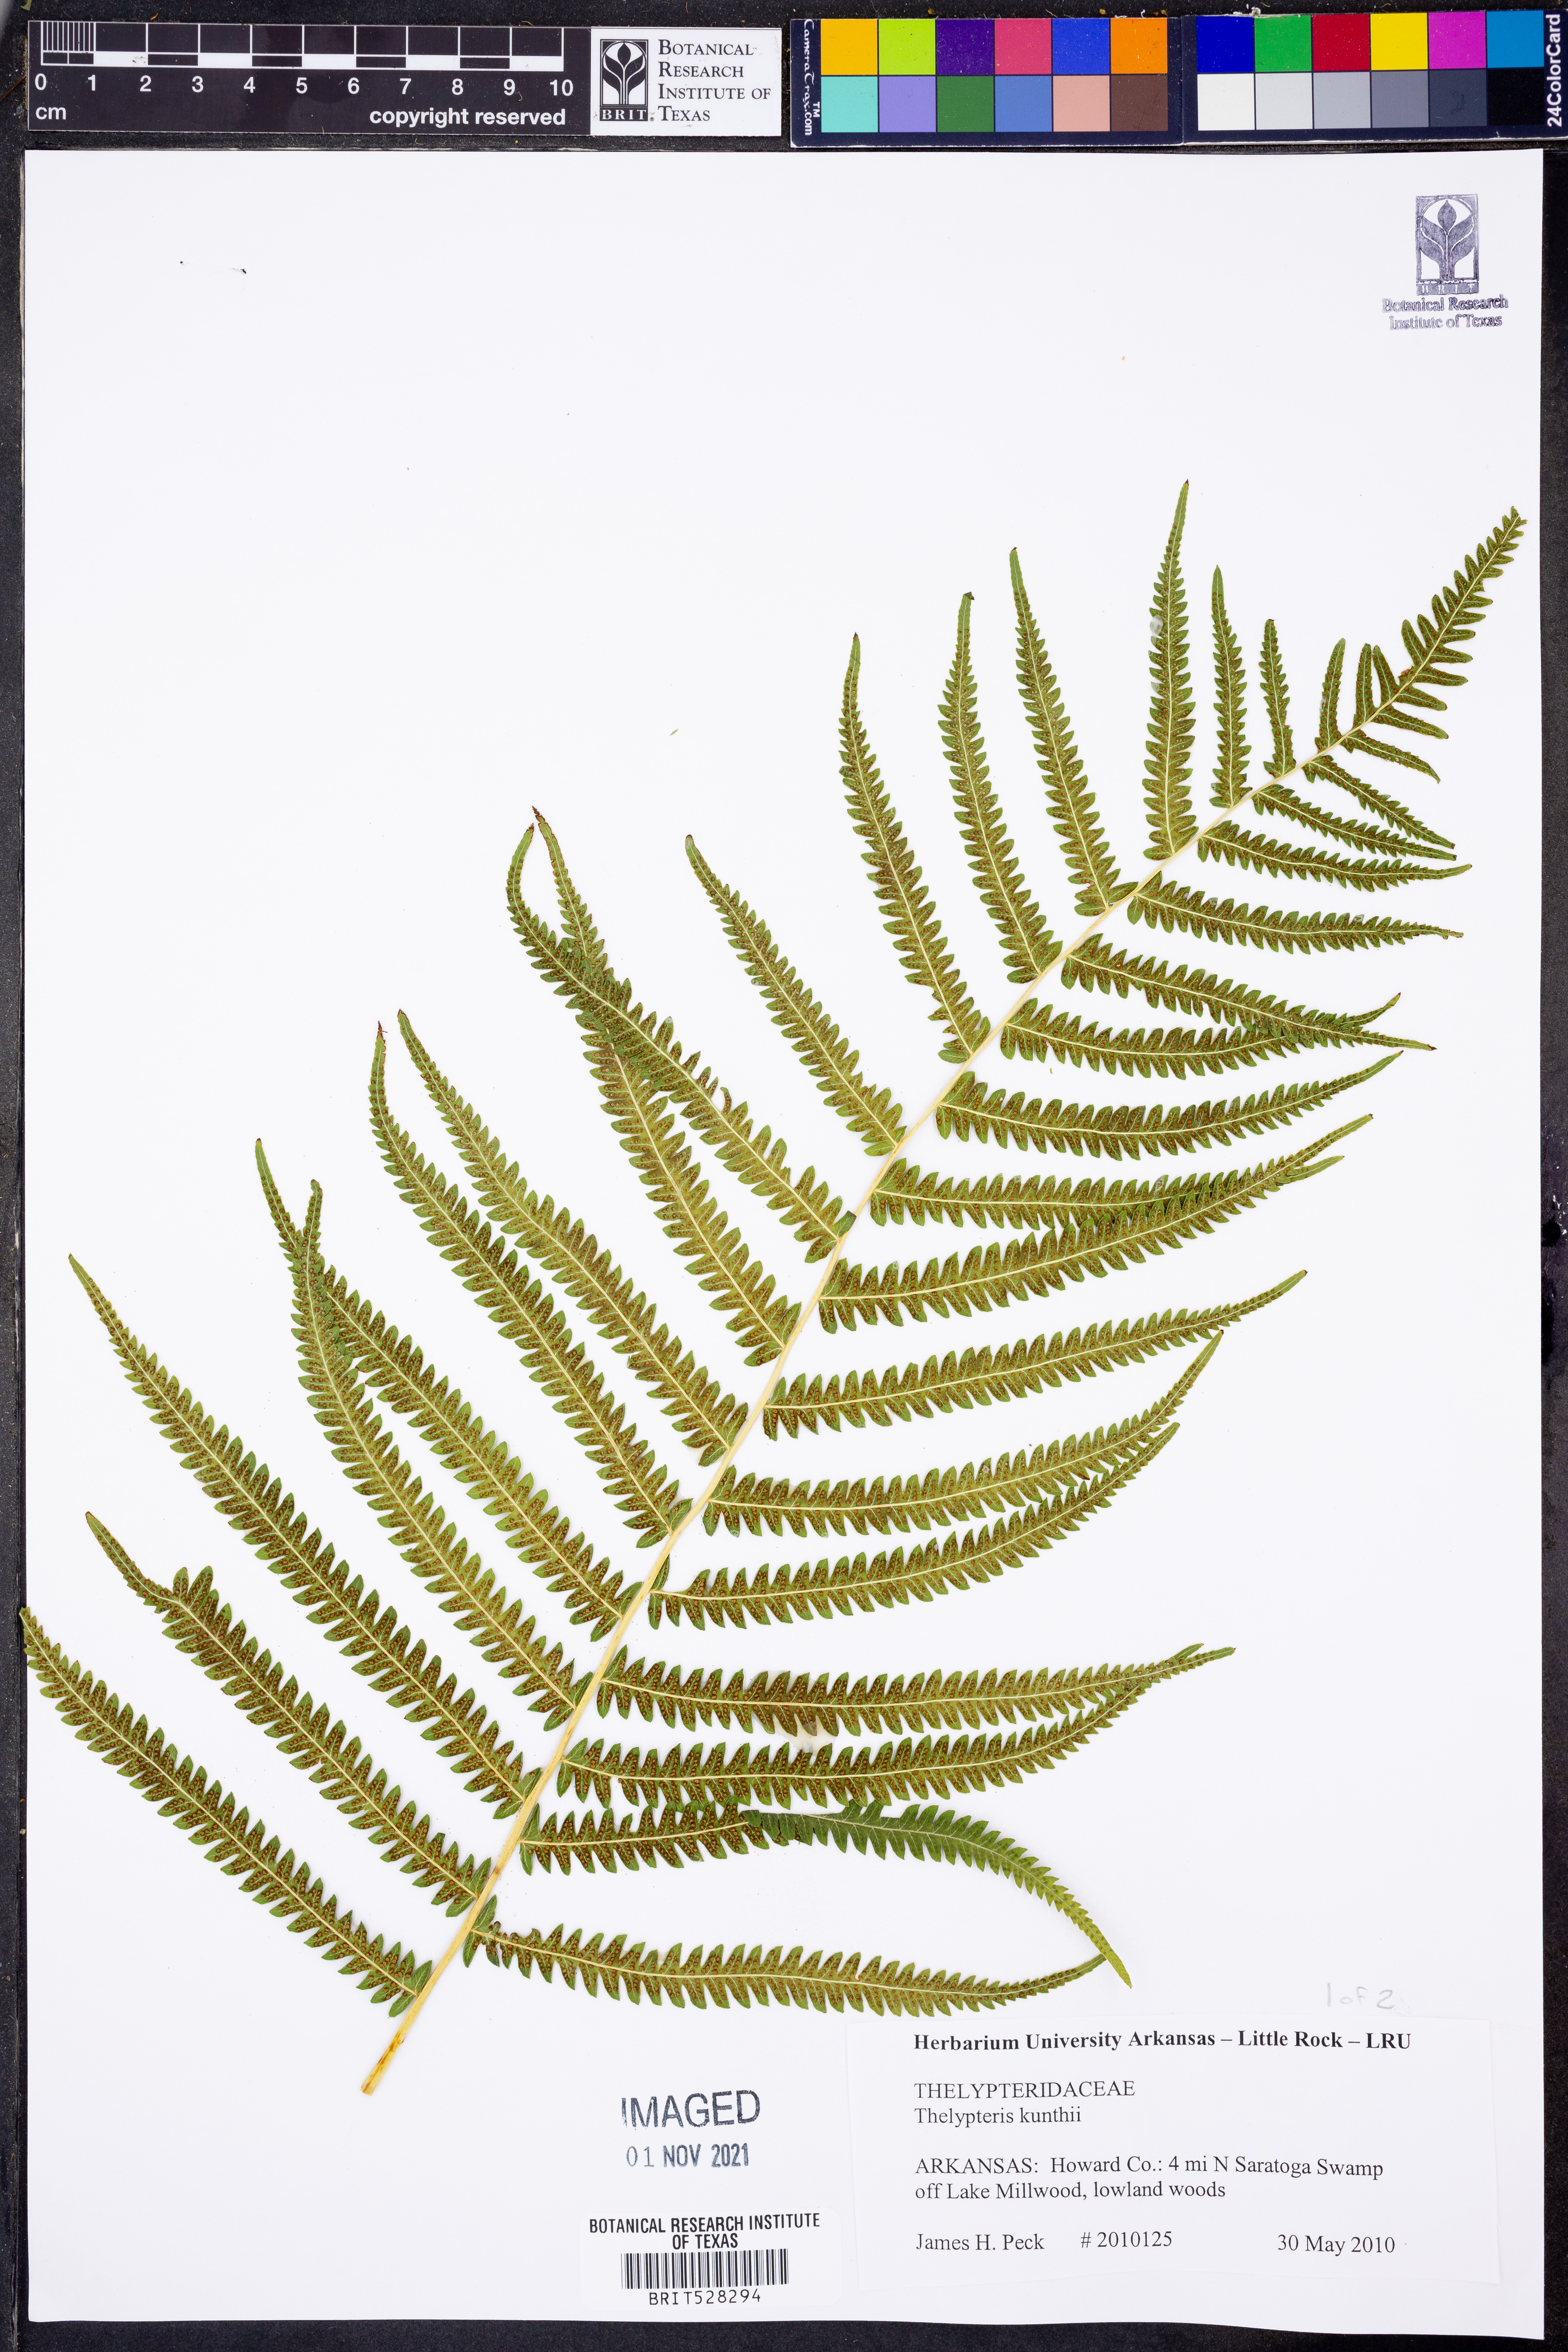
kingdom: Plantae
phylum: Tracheophyta
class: Polypodiopsida
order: Polypodiales
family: Thelypteridaceae
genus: Pelazoneuron
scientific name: Pelazoneuron kunthii
